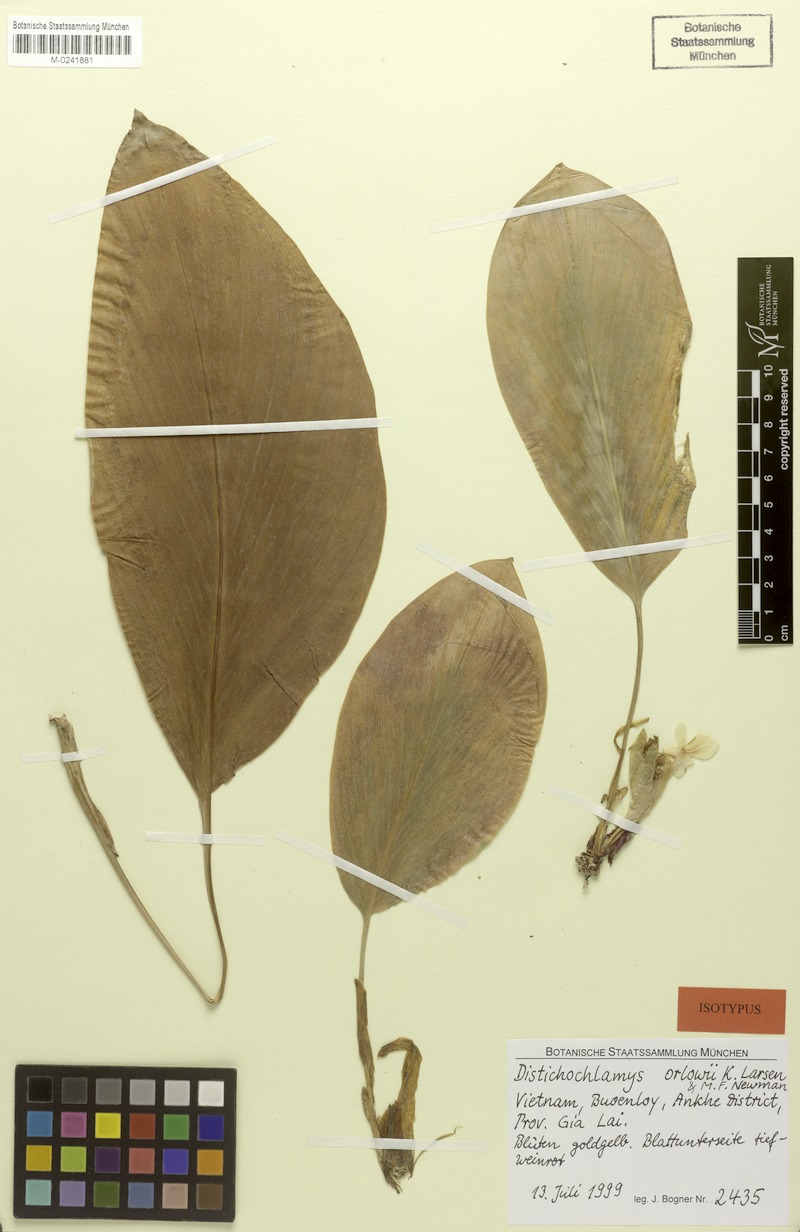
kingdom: Plantae
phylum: Tracheophyta
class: Liliopsida
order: Zingiberales
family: Zingiberaceae
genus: Distichochlamys
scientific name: Distichochlamys orlowii
